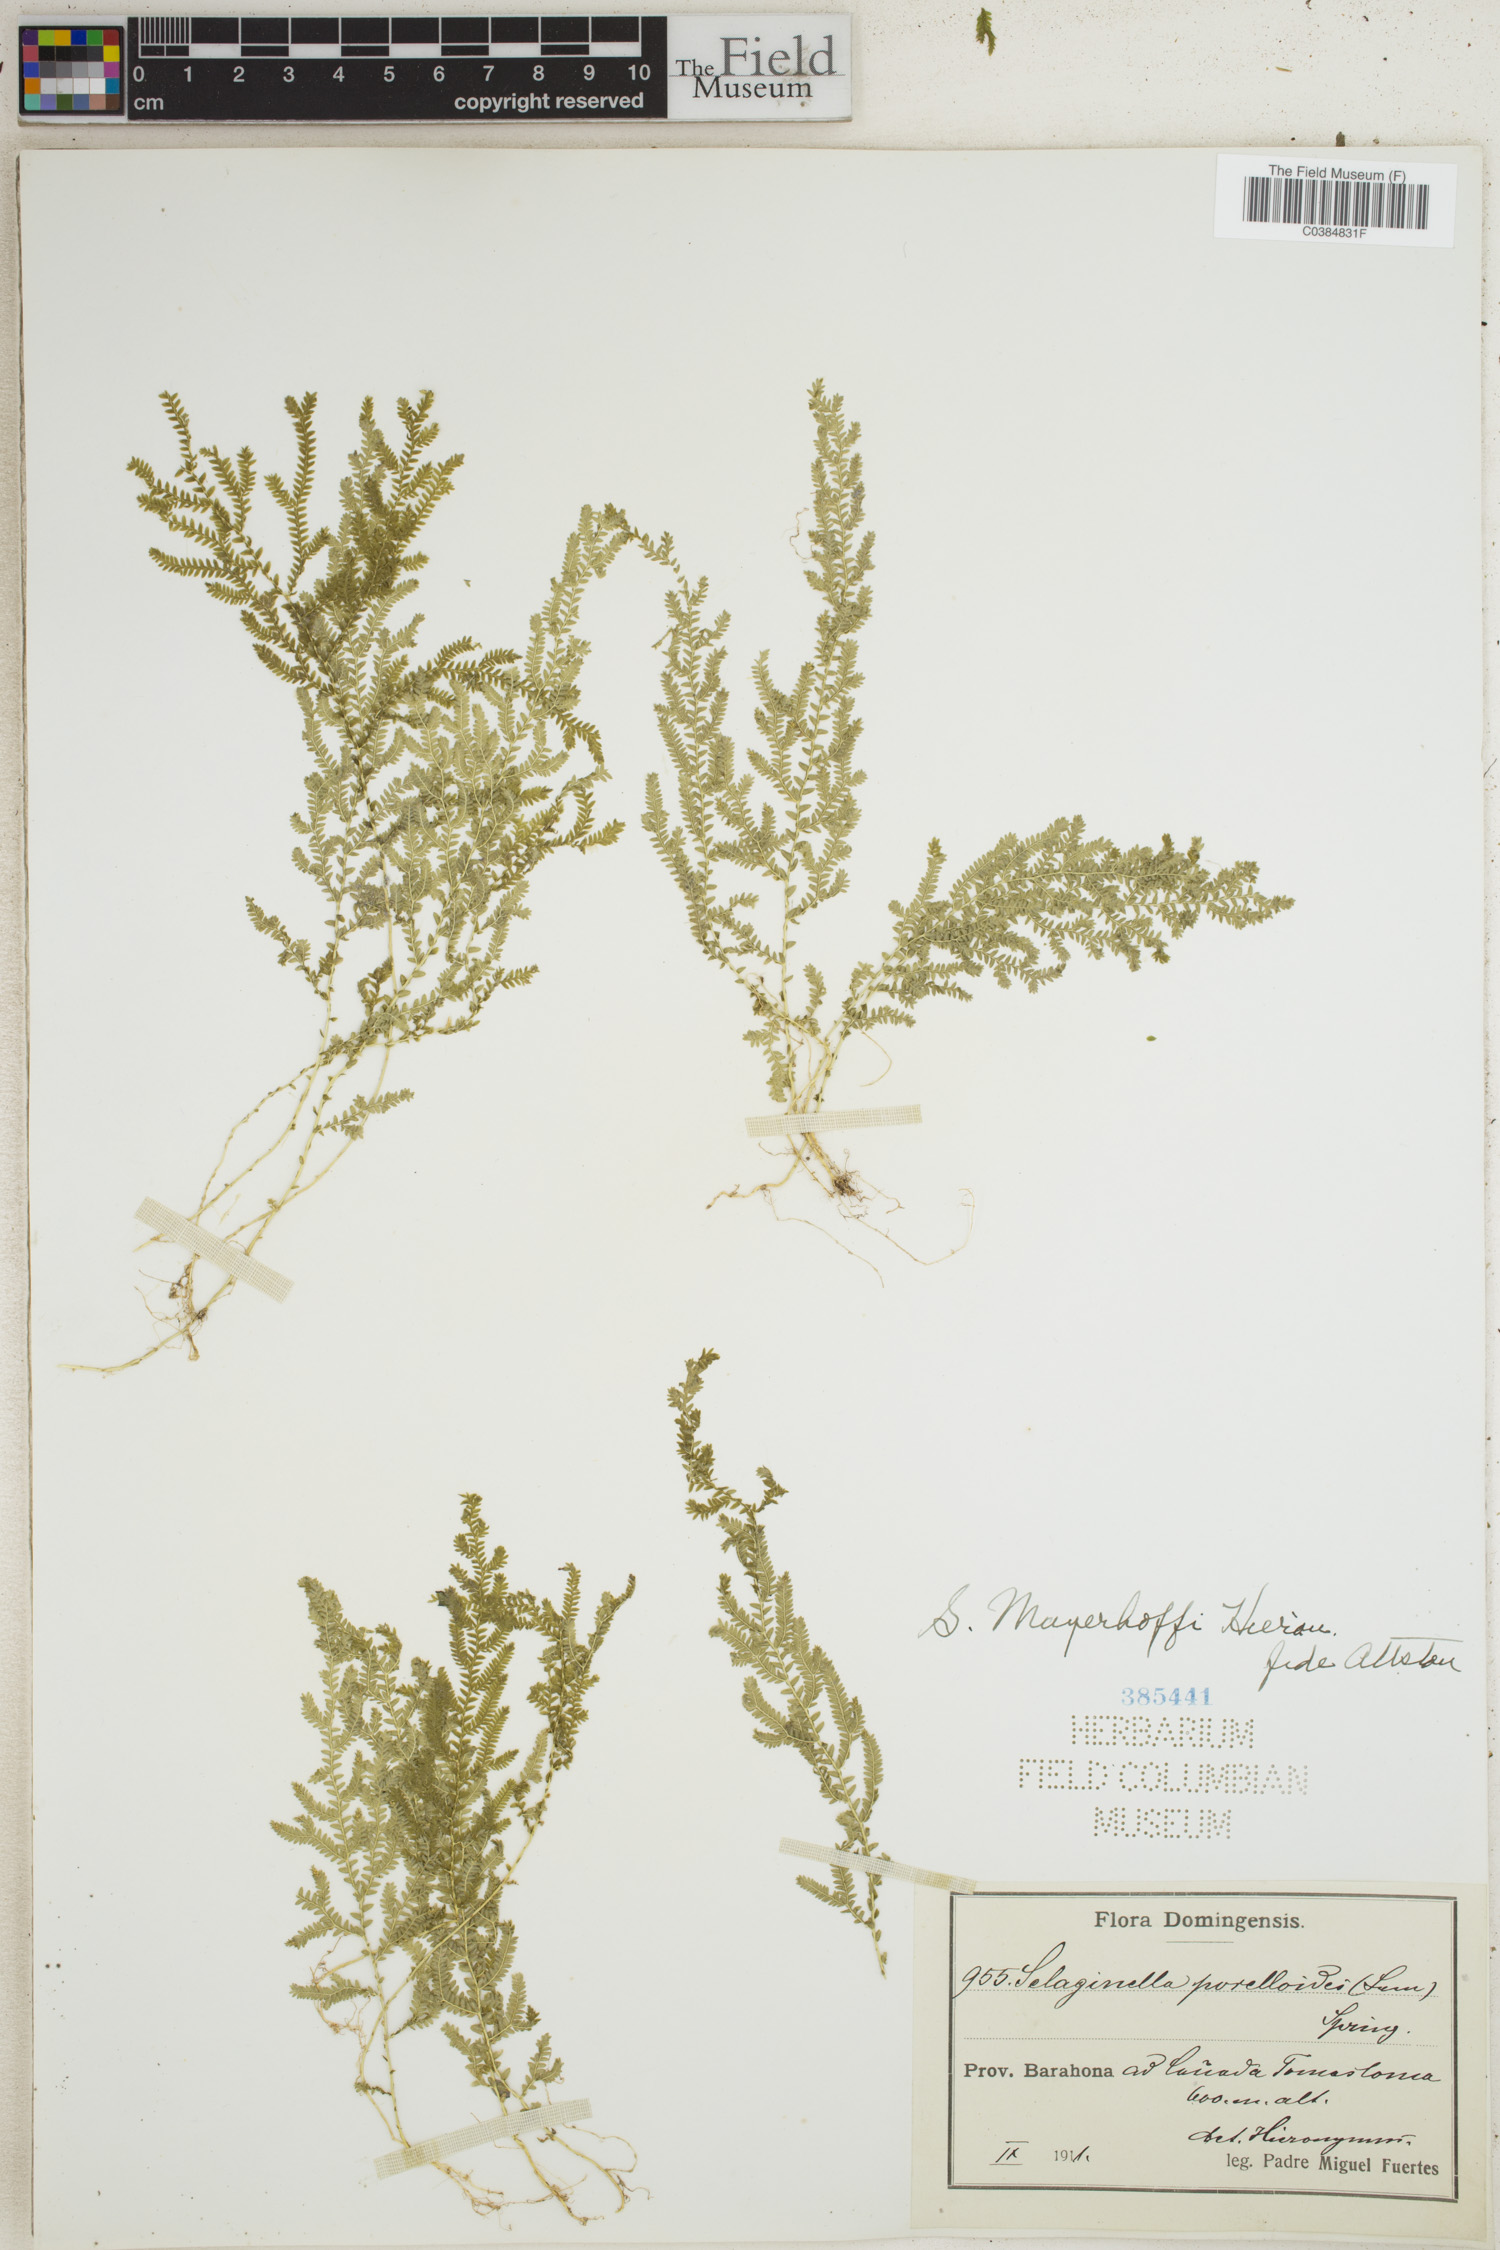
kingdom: Plantae
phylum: Tracheophyta
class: Lycopodiopsida
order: Selaginellales
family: Selaginellaceae
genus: Selaginella
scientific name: Selaginella porelloides
